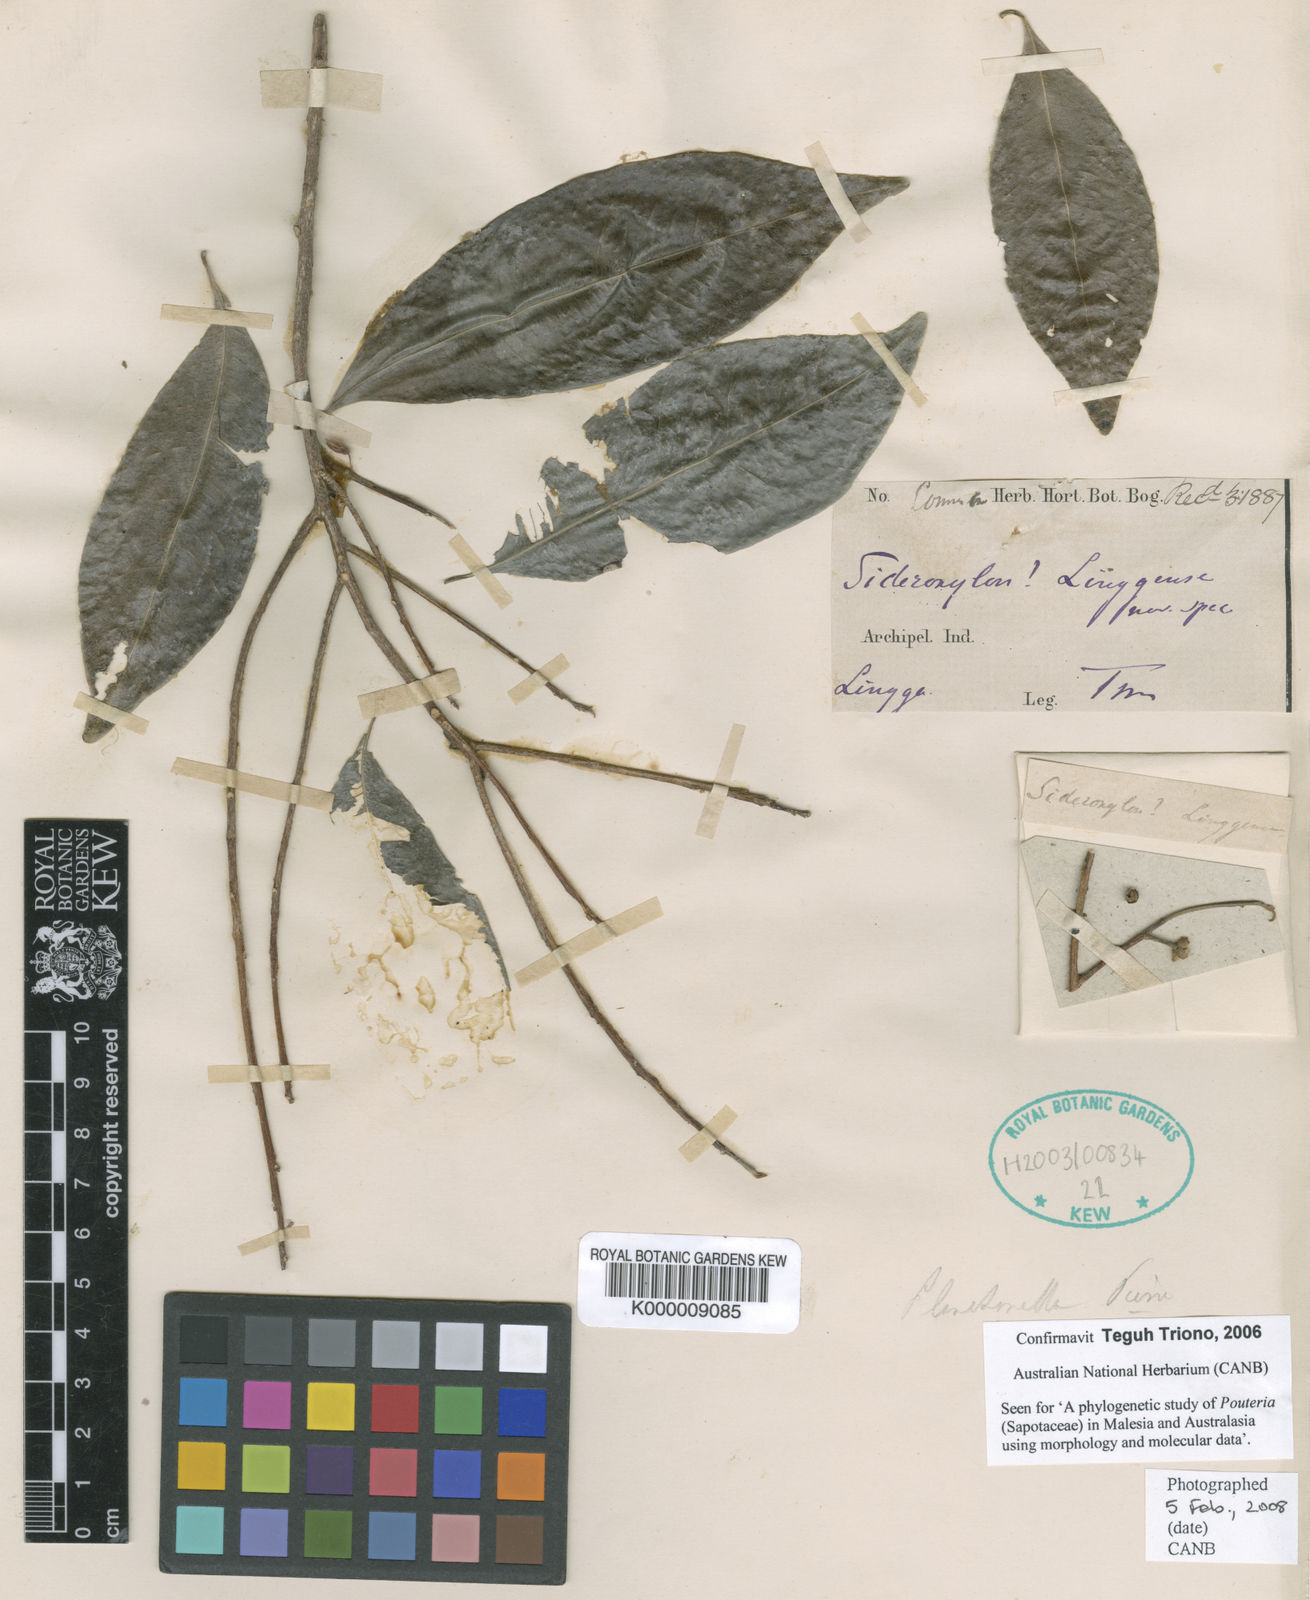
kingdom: Plantae
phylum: Tracheophyta
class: Magnoliopsida
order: Ericales
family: Sapotaceae
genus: Planchonella
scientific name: Planchonella chartacea
